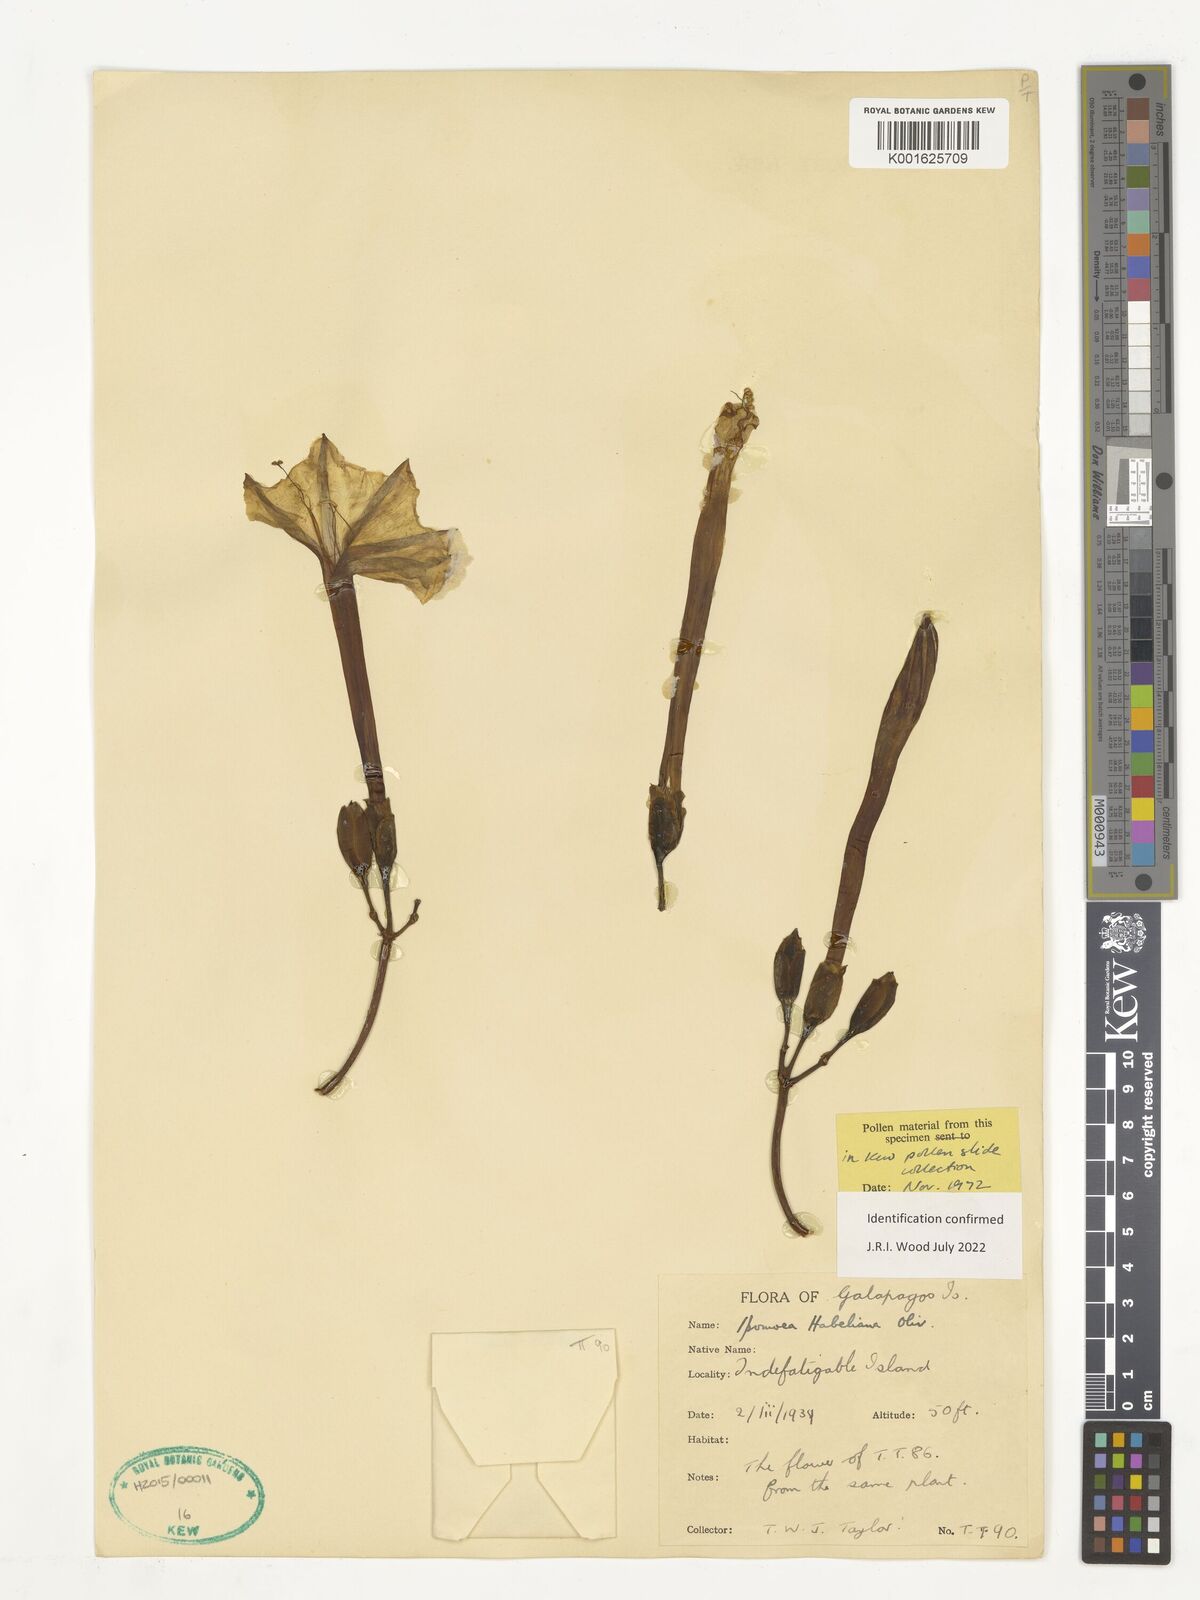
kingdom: Plantae
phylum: Tracheophyta
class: Magnoliopsida
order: Solanales
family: Convolvulaceae
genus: Ipomoea
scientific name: Ipomoea habeliana
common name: Lava morning glory
